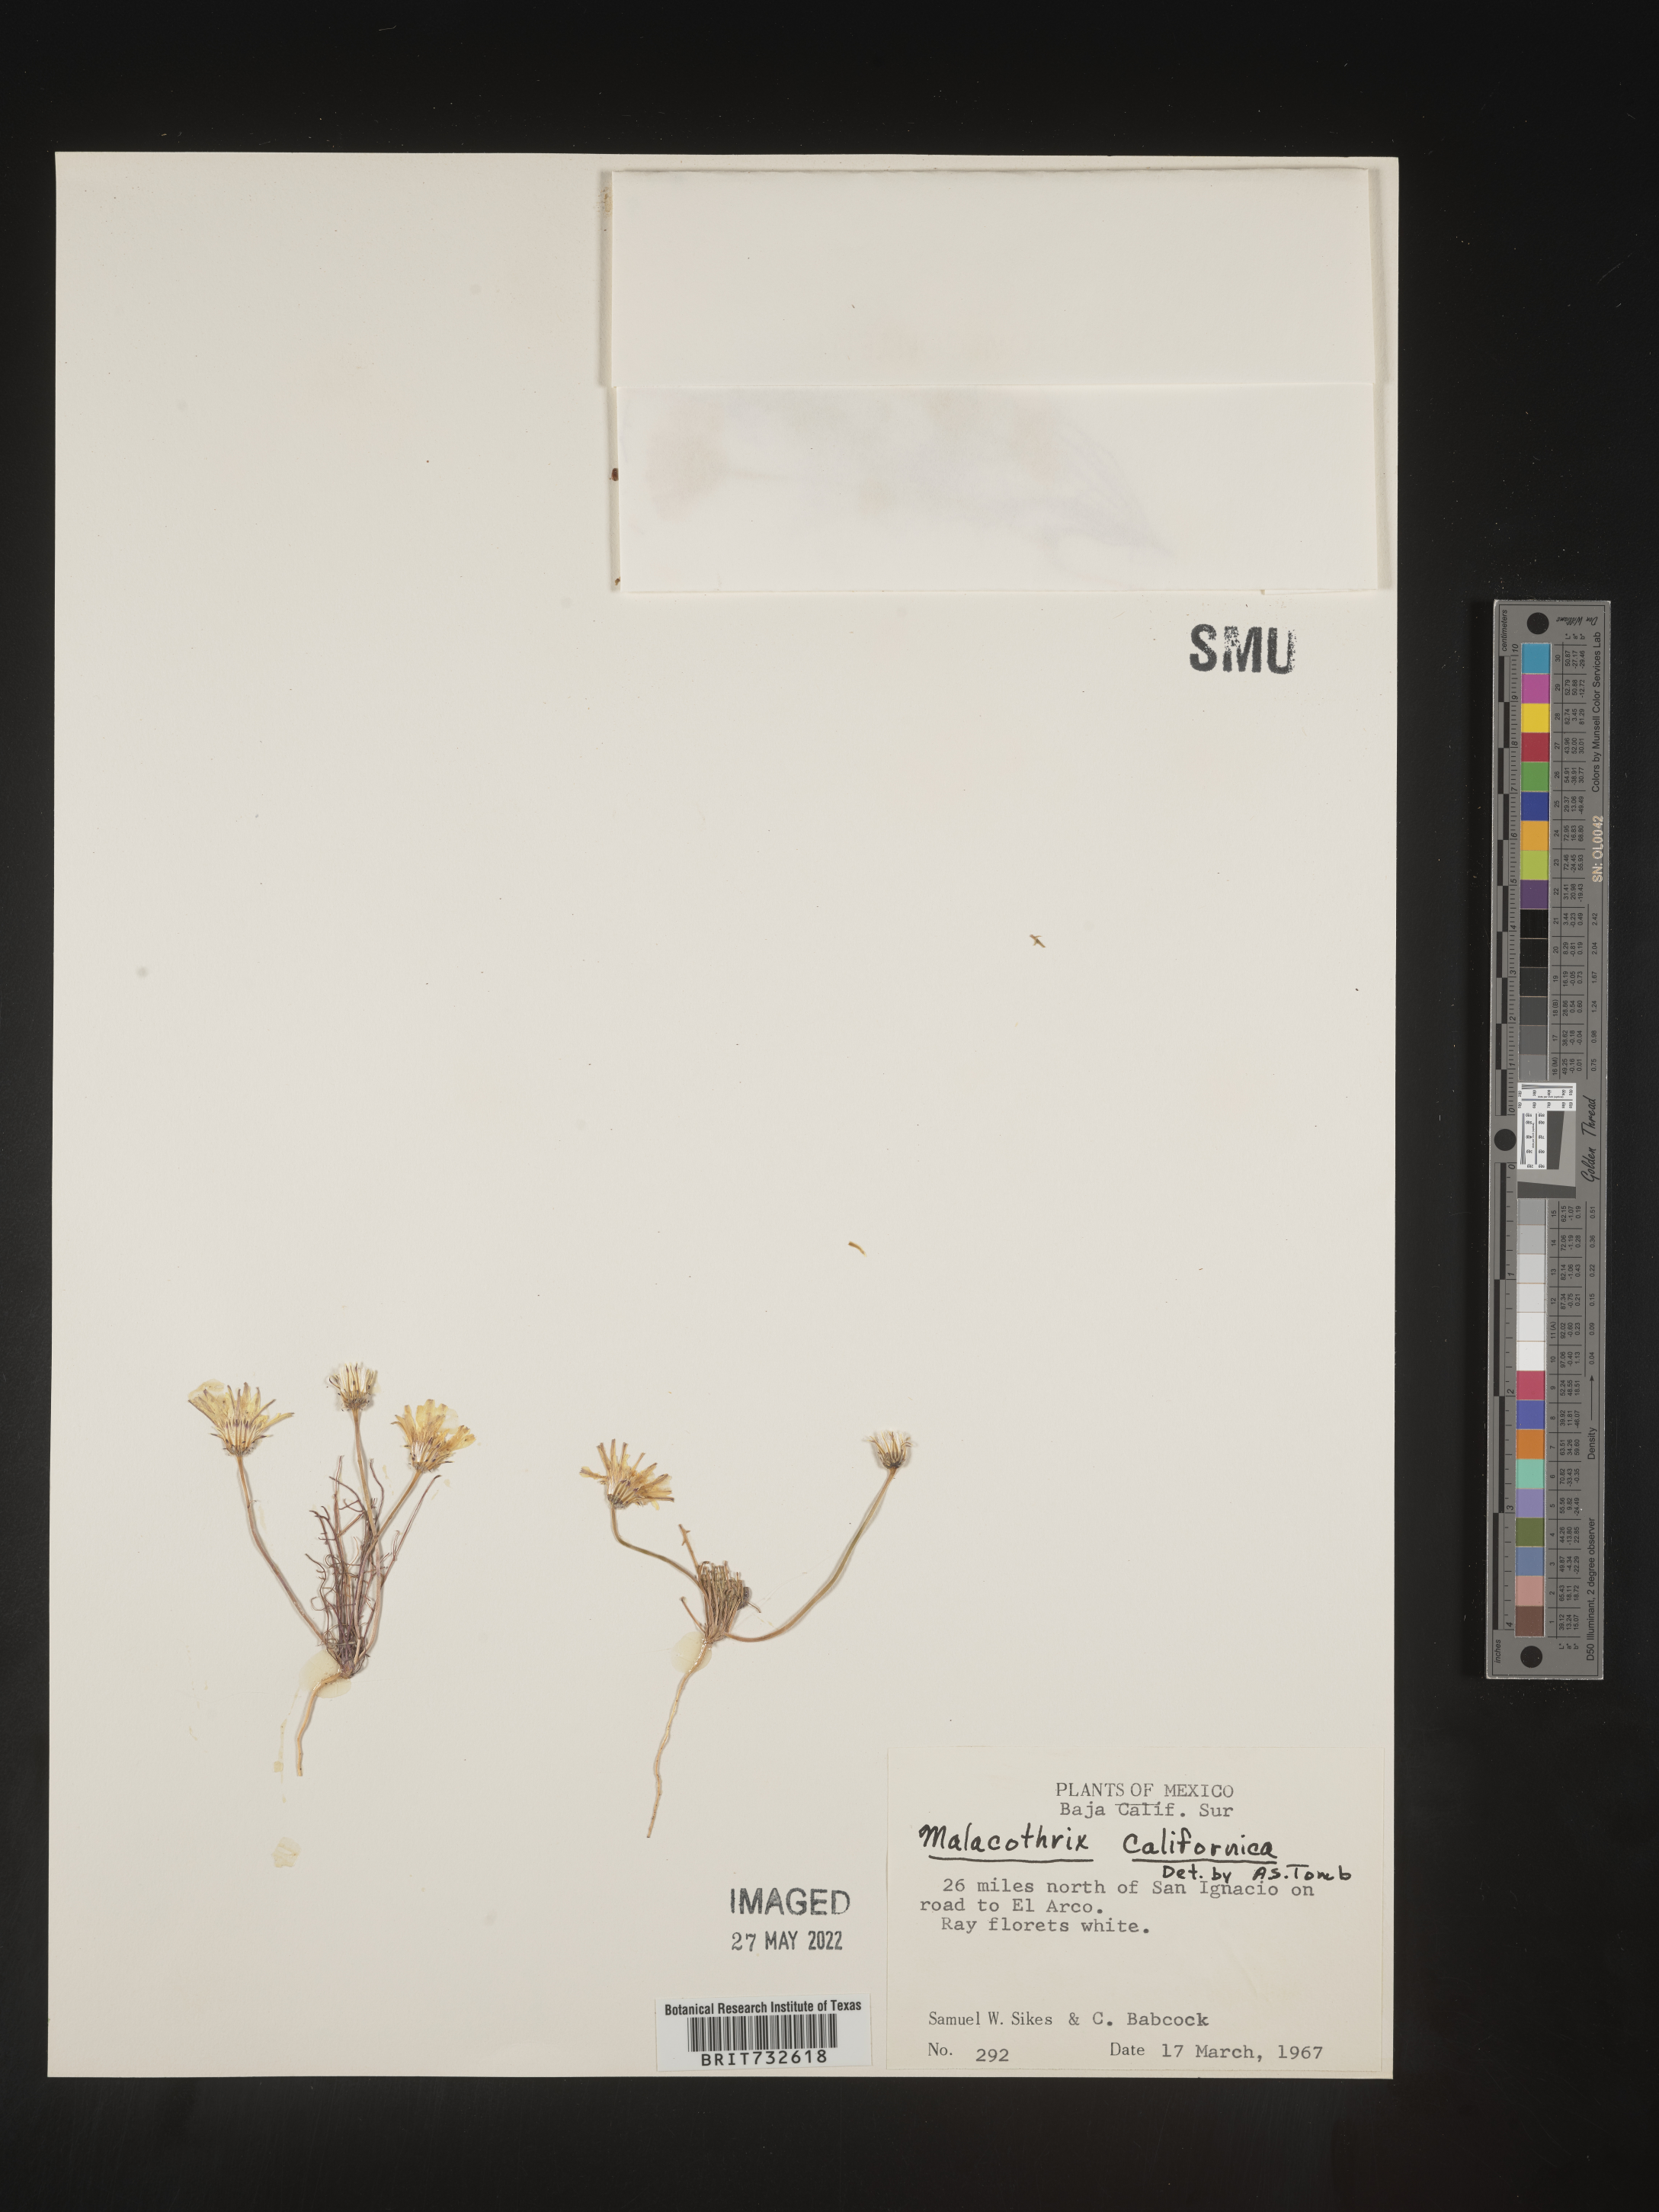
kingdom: Plantae
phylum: Tracheophyta
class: Magnoliopsida
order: Asterales
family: Asteraceae
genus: Malacothrix
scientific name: Malacothrix californica
